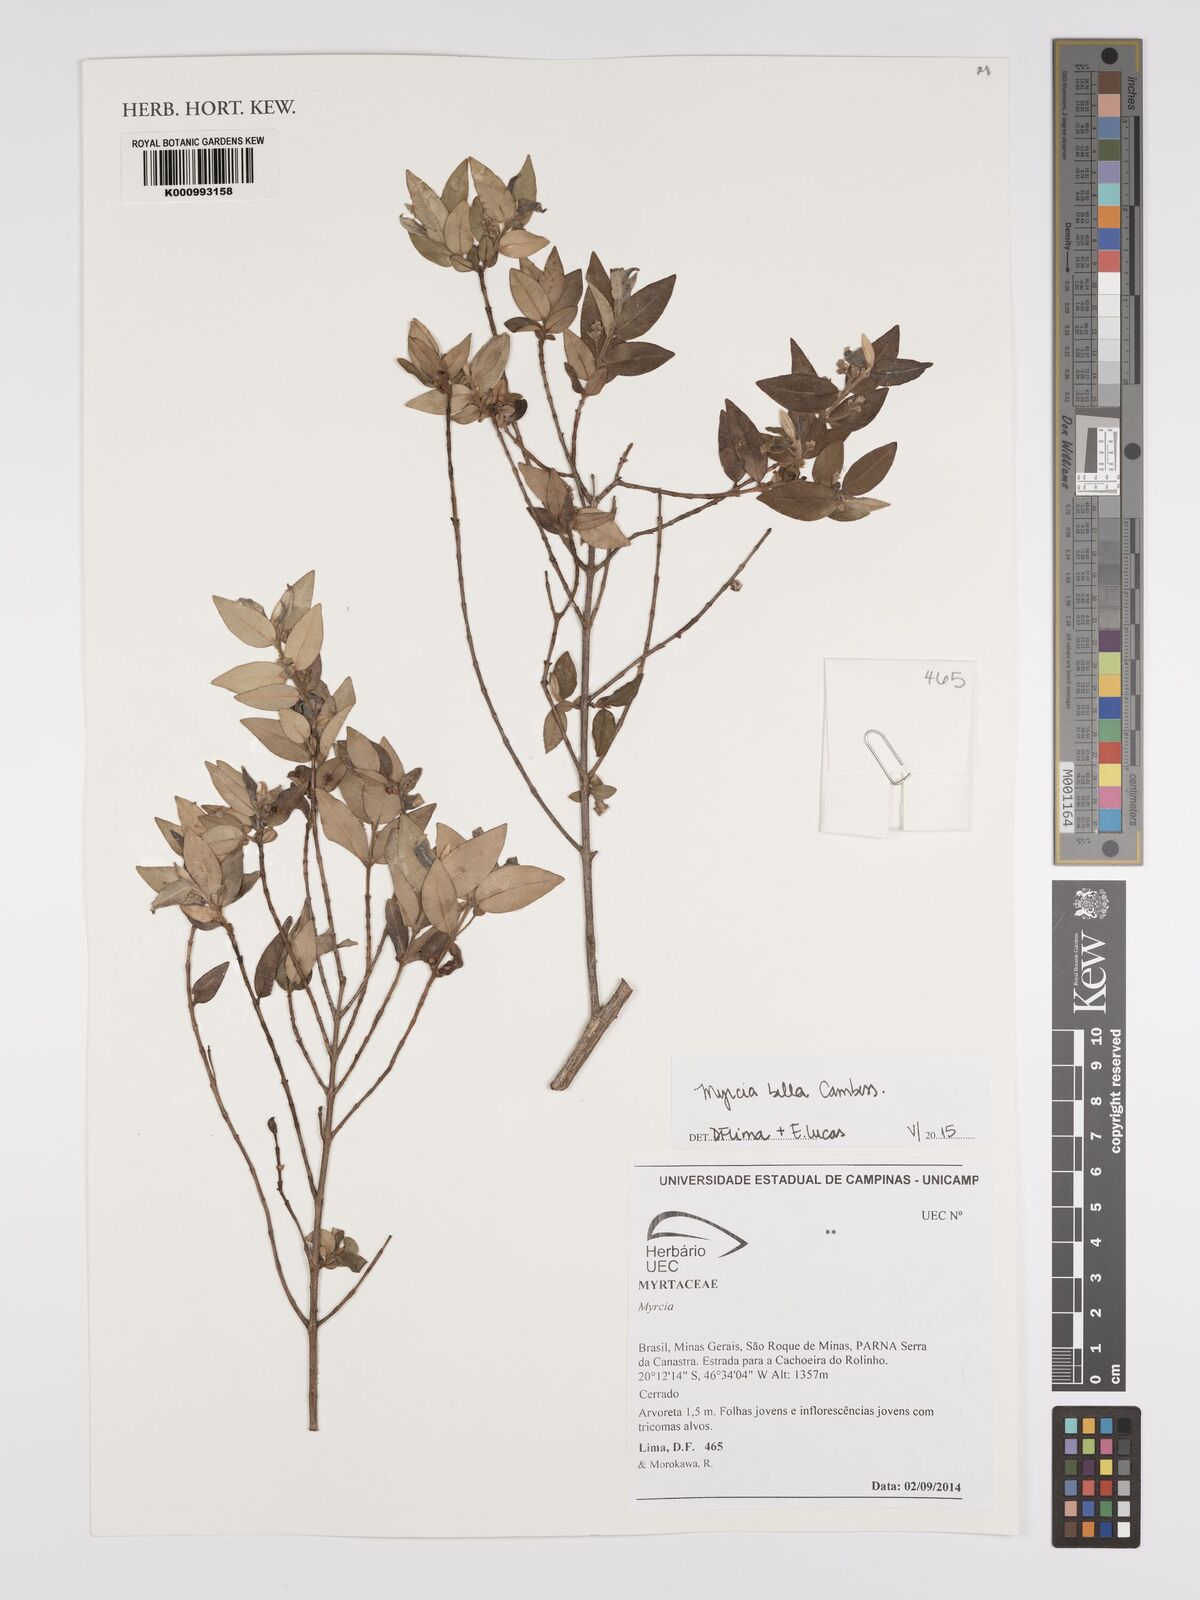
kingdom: Plantae
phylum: Tracheophyta
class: Magnoliopsida
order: Myrtales
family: Myrtaceae
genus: Myrcia
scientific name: Myrcia bella
